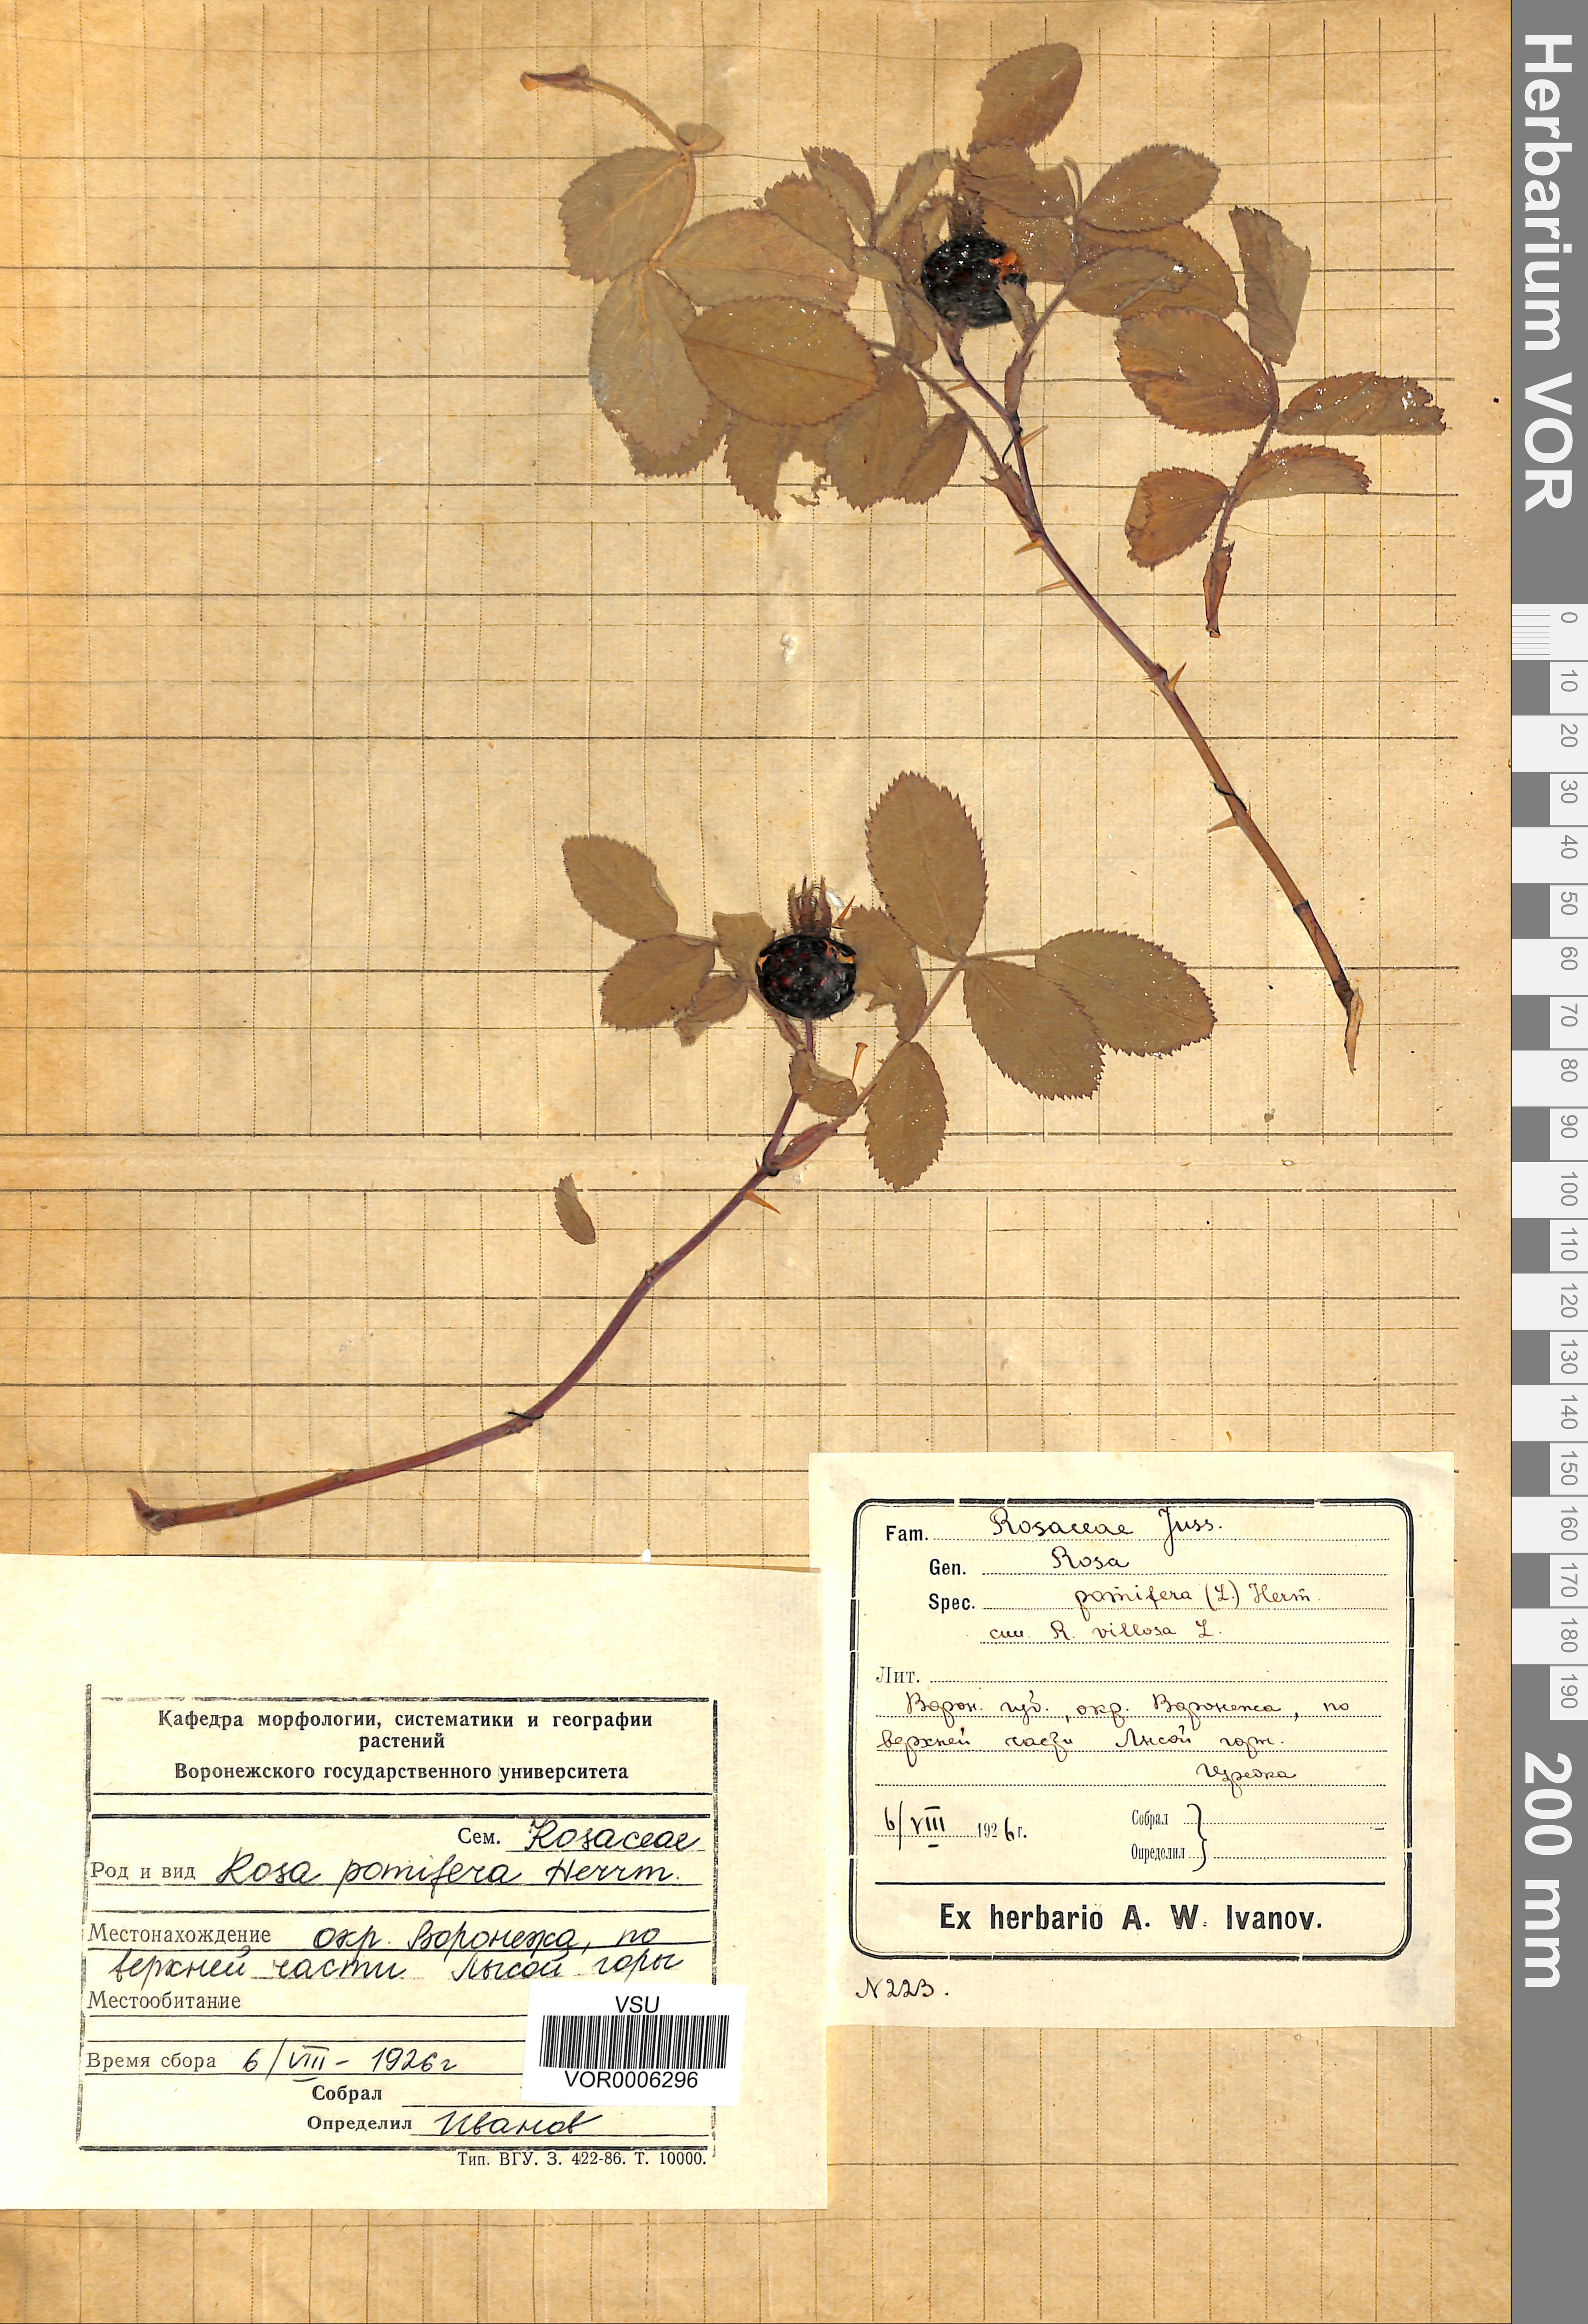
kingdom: Plantae
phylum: Tracheophyta
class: Magnoliopsida
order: Rosales
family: Rosaceae
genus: Rosa
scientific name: Rosa villosa
